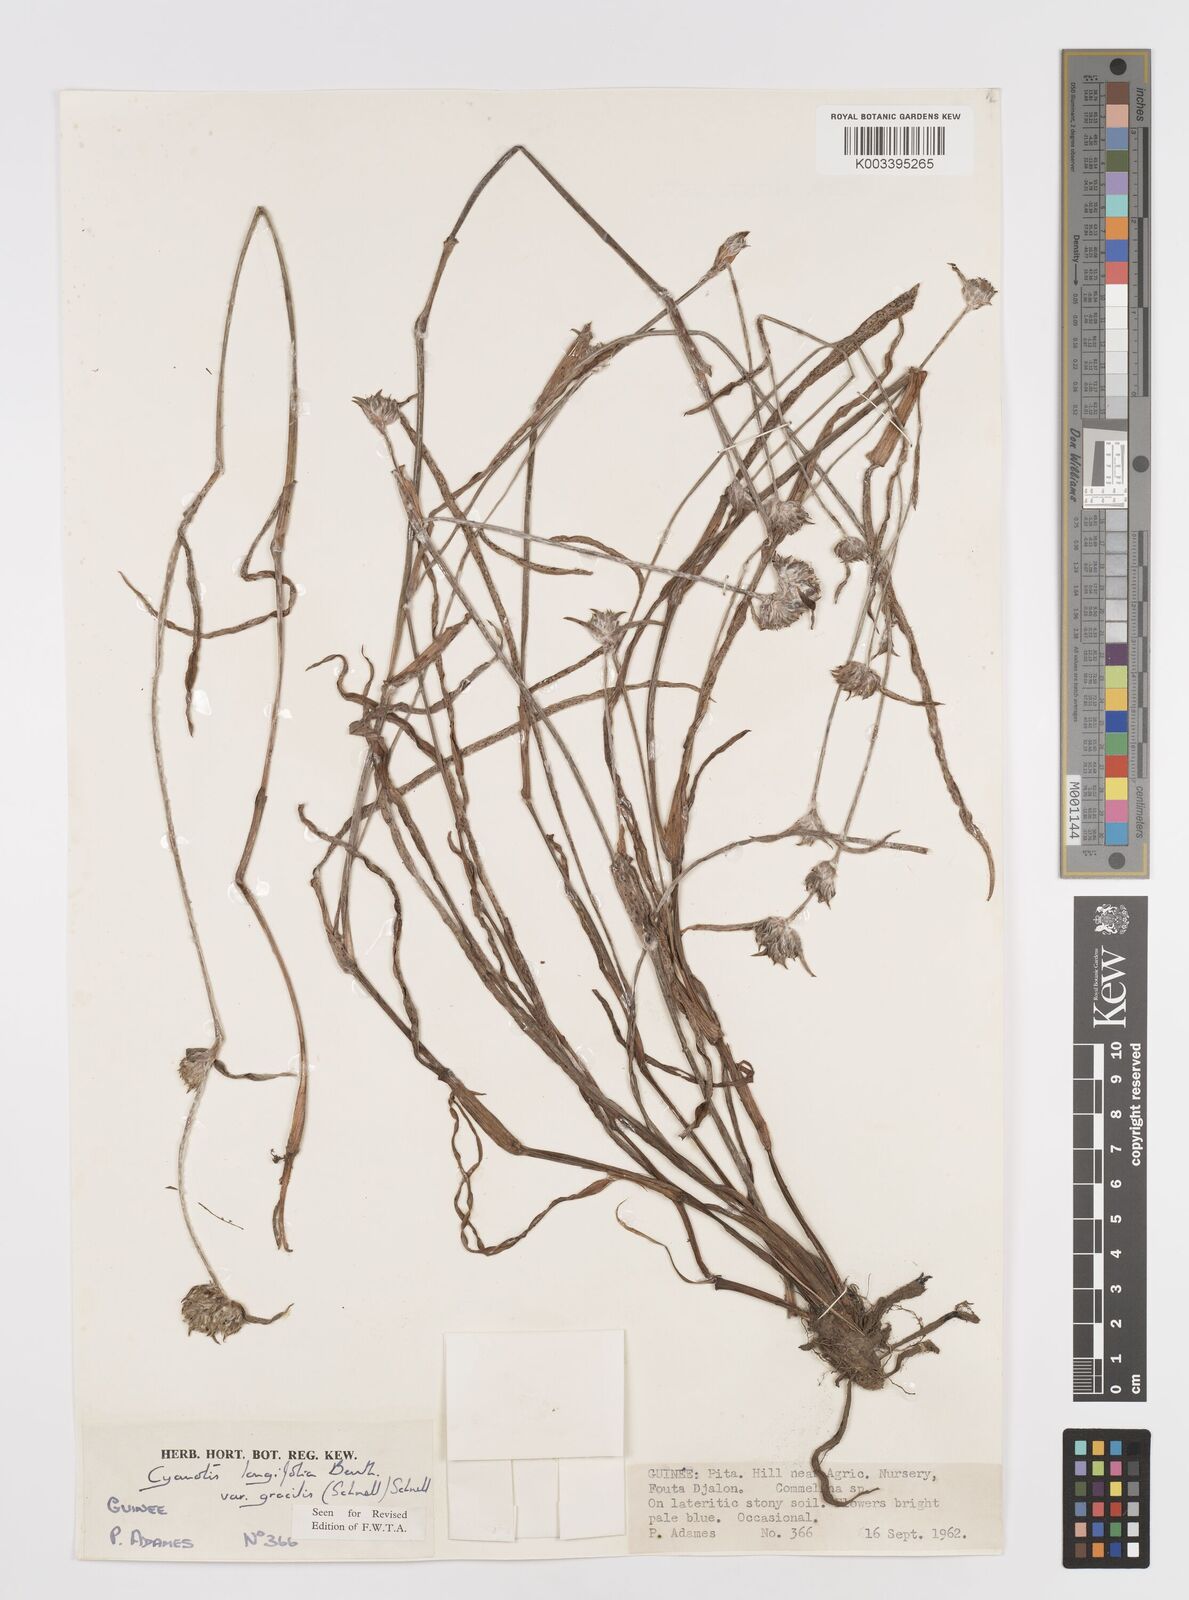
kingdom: Plantae
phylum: Tracheophyta
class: Liliopsida
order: Commelinales
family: Commelinaceae
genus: Cyanotis
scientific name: Cyanotis longifolia
